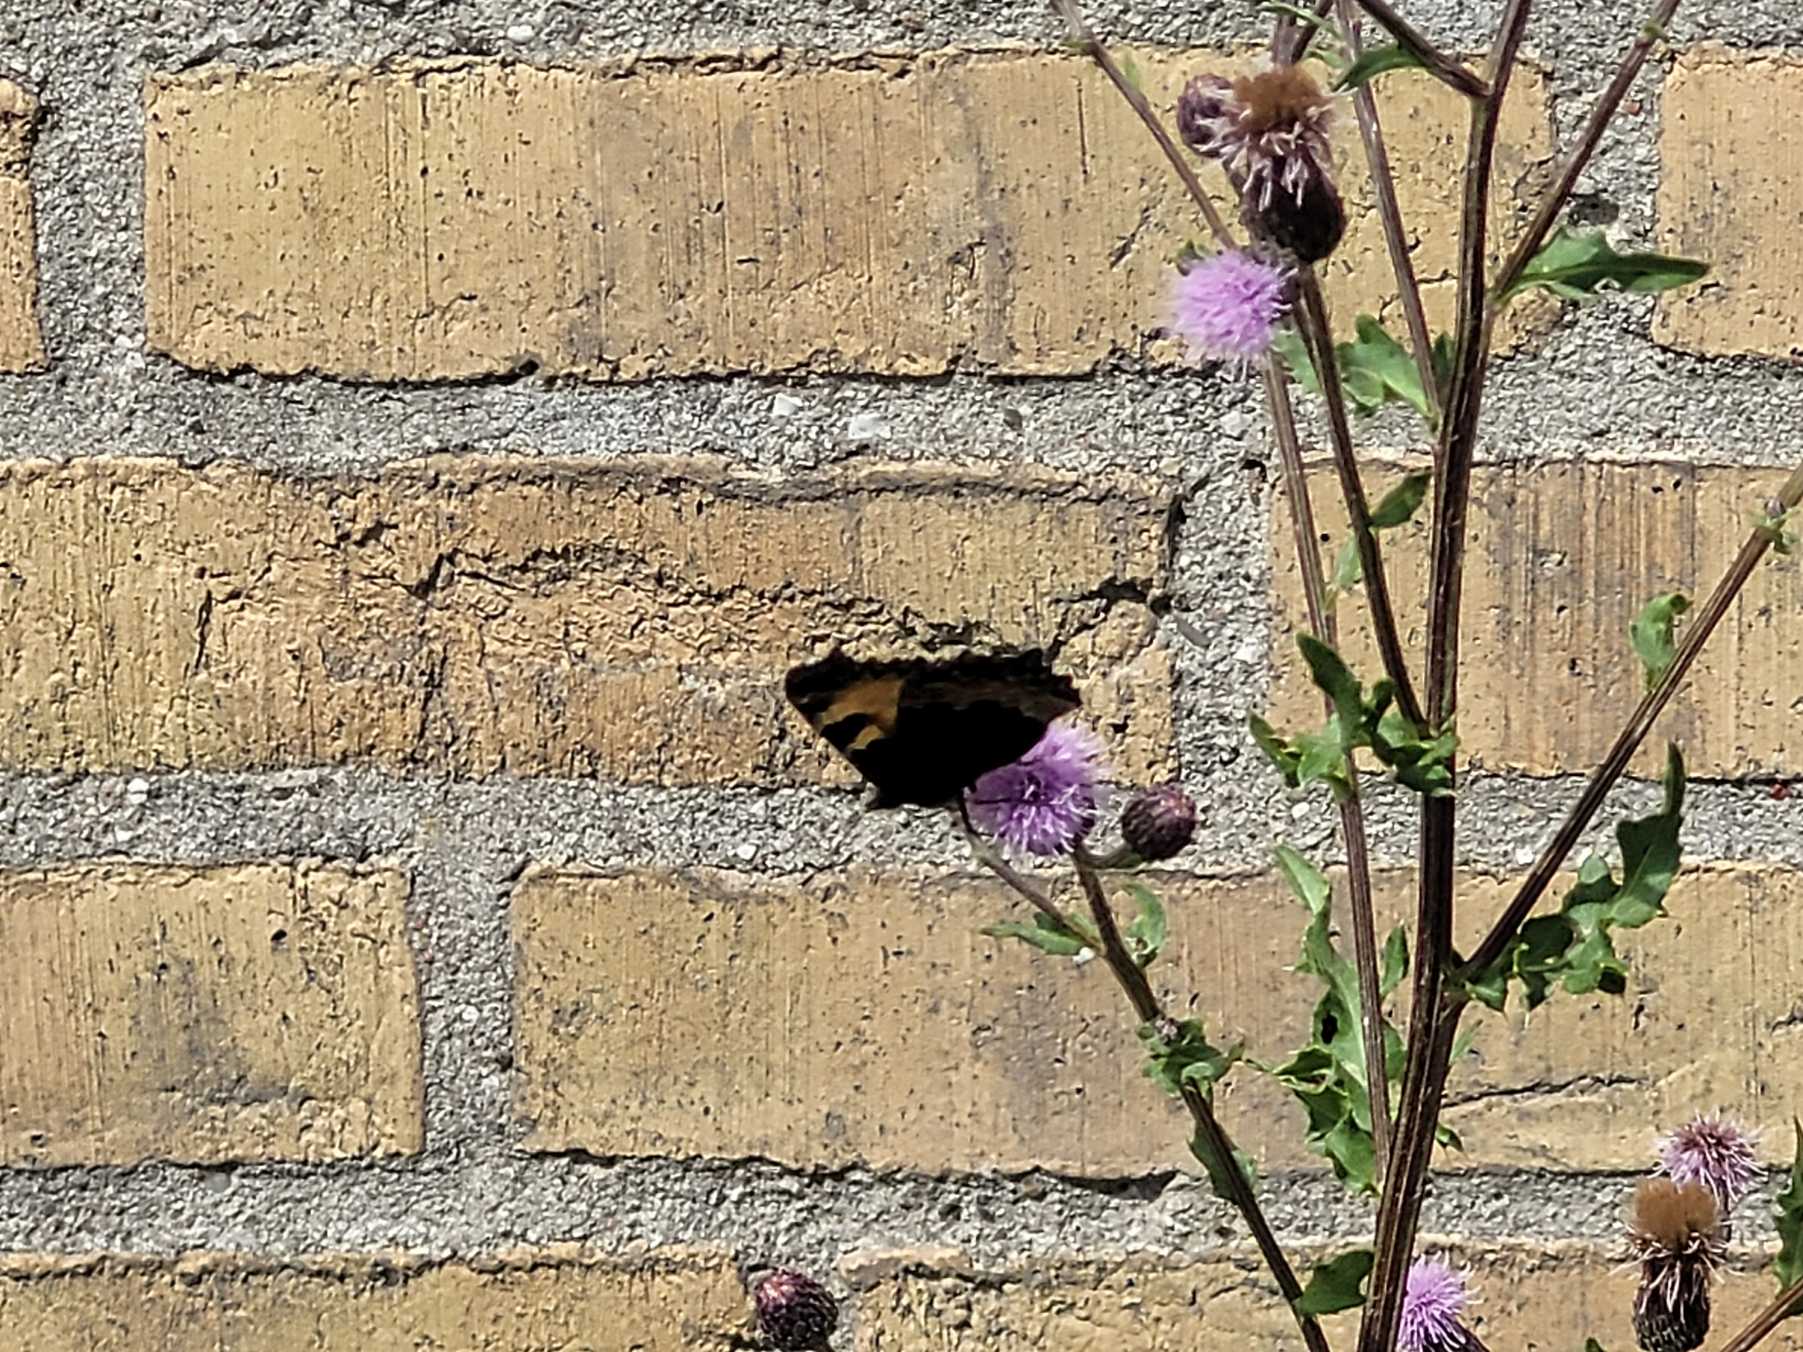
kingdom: Animalia
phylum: Arthropoda
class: Insecta
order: Lepidoptera
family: Nymphalidae
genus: Aglais
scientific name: Aglais urticae
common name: Nældens takvinge
